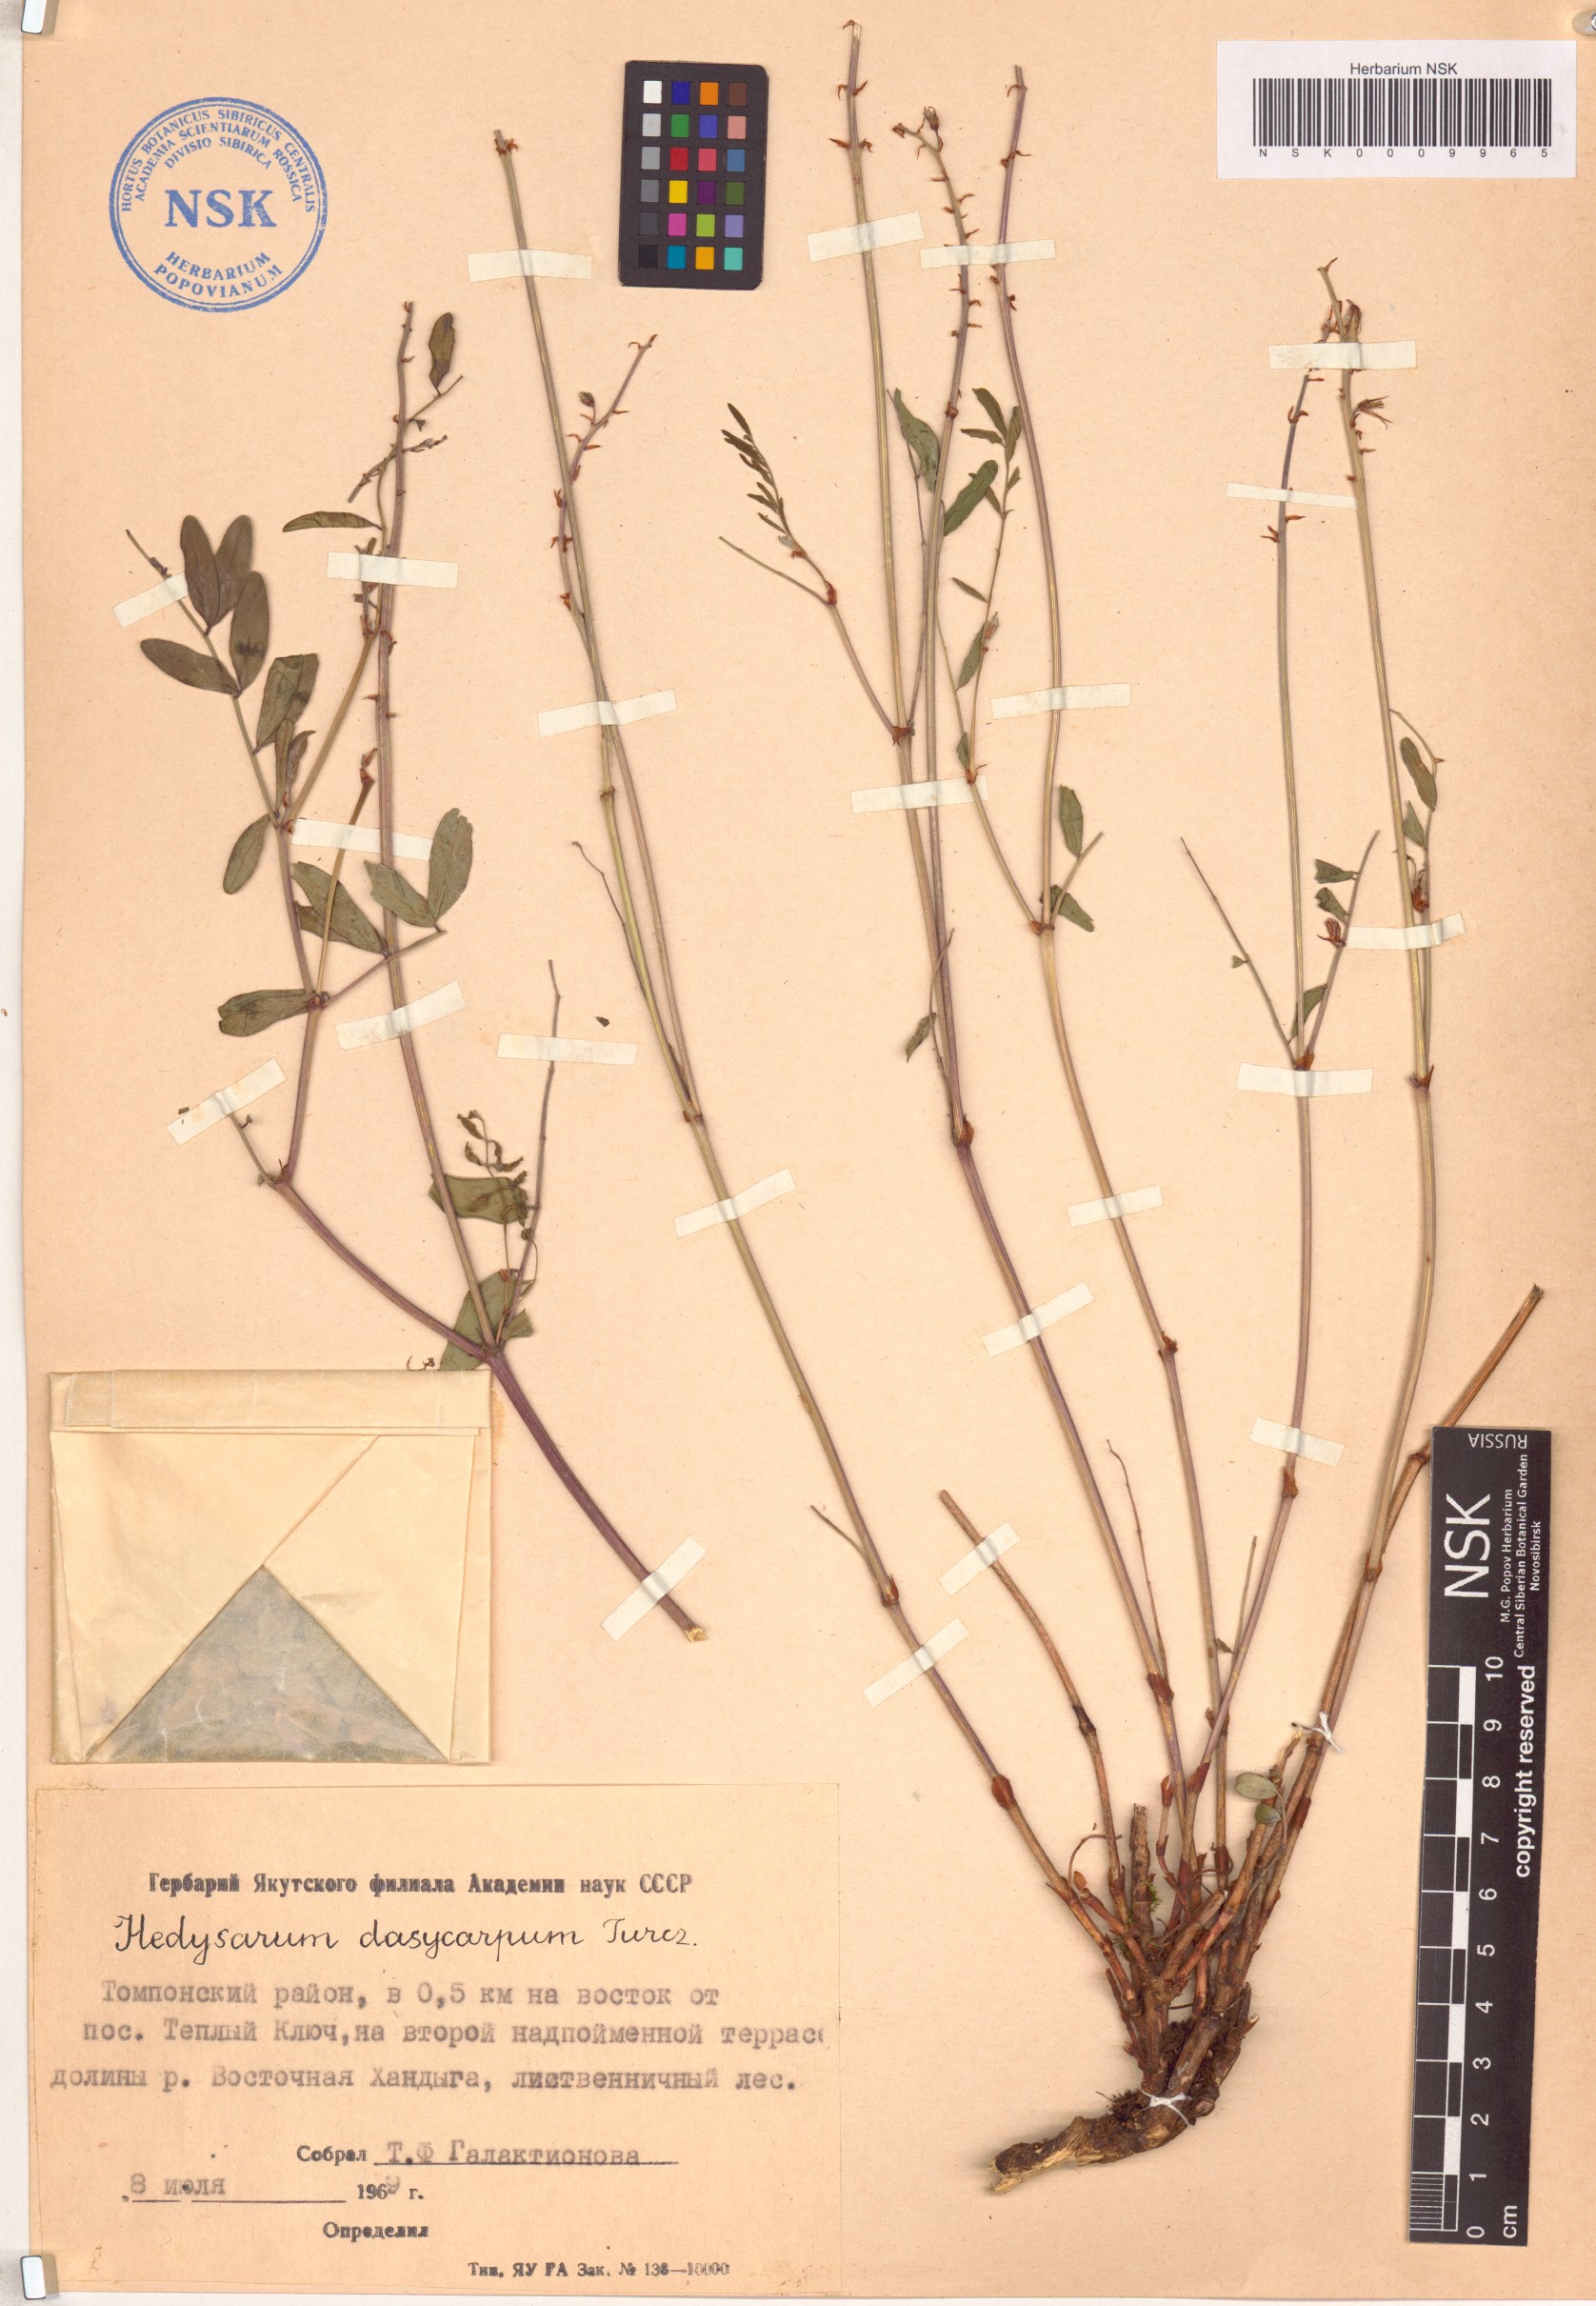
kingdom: Plantae
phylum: Tracheophyta
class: Magnoliopsida
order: Fabales
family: Fabaceae
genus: Hedysarum
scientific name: Hedysarum dasycarpum
